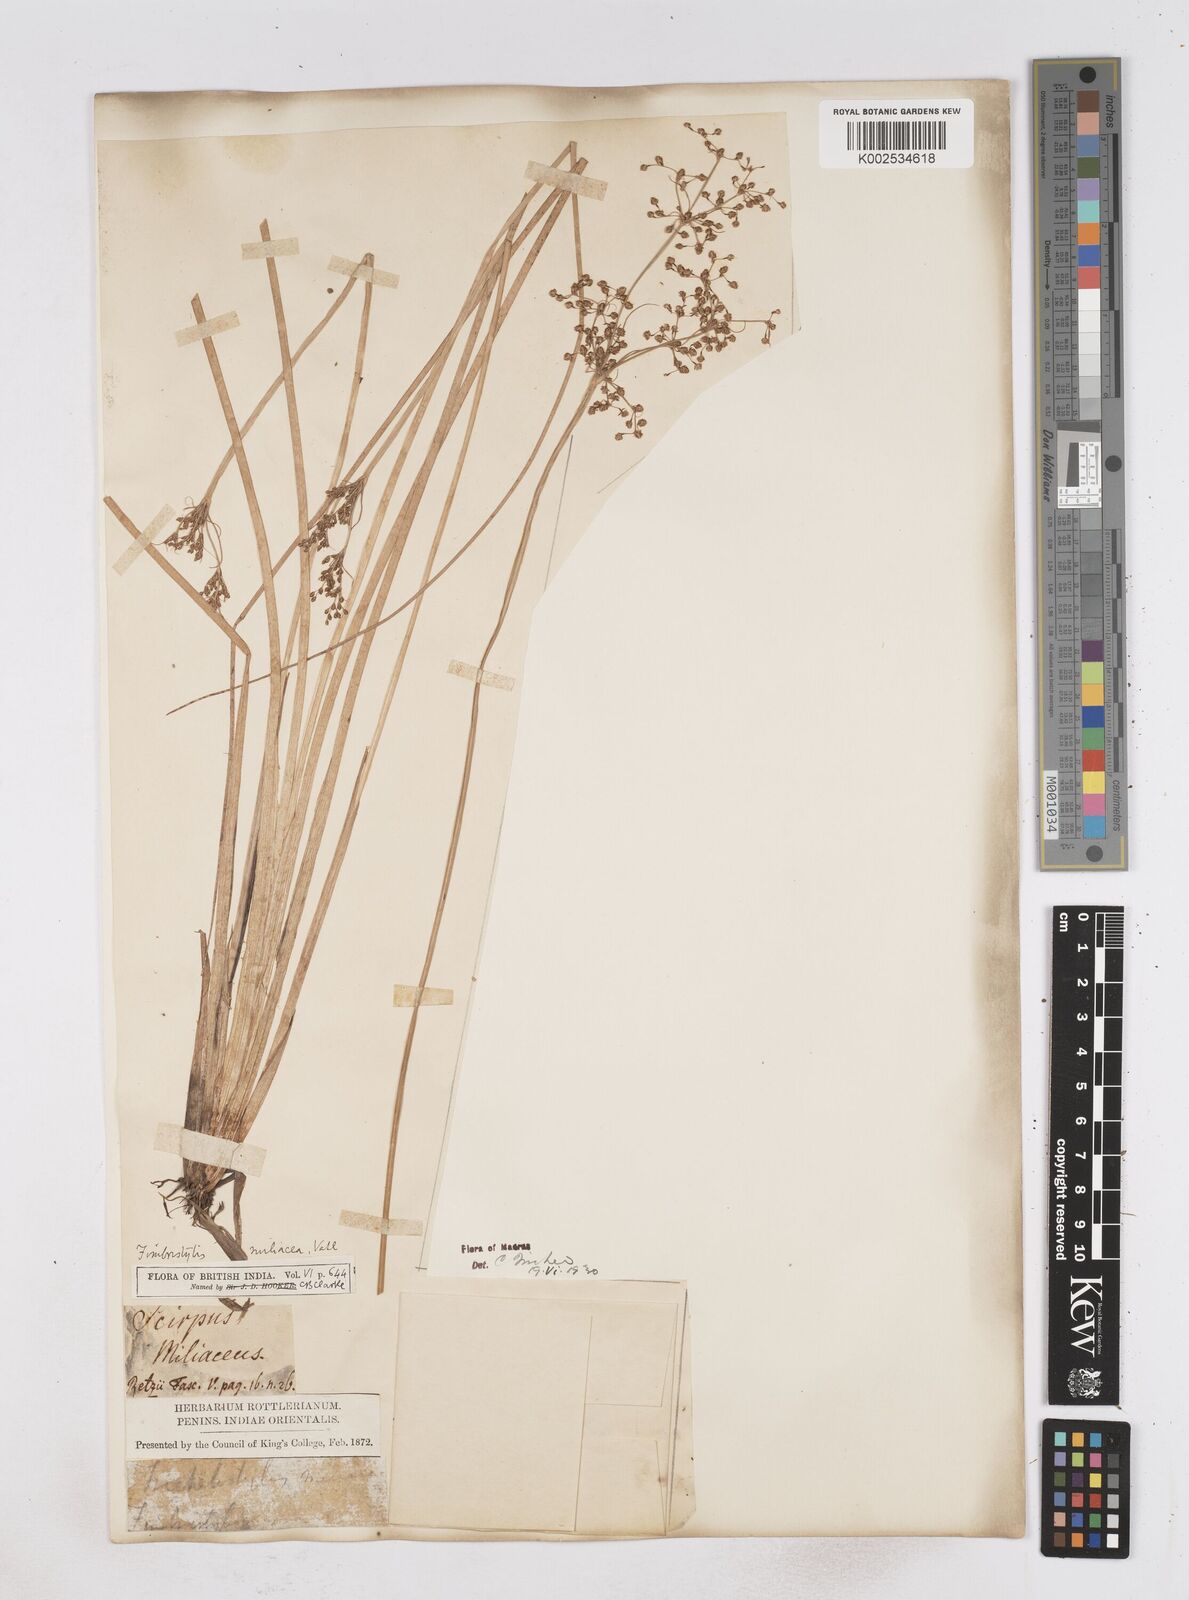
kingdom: Plantae
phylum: Tracheophyta
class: Liliopsida
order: Poales
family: Cyperaceae
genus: Fimbristylis
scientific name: Fimbristylis littoralis
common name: Fimbry
